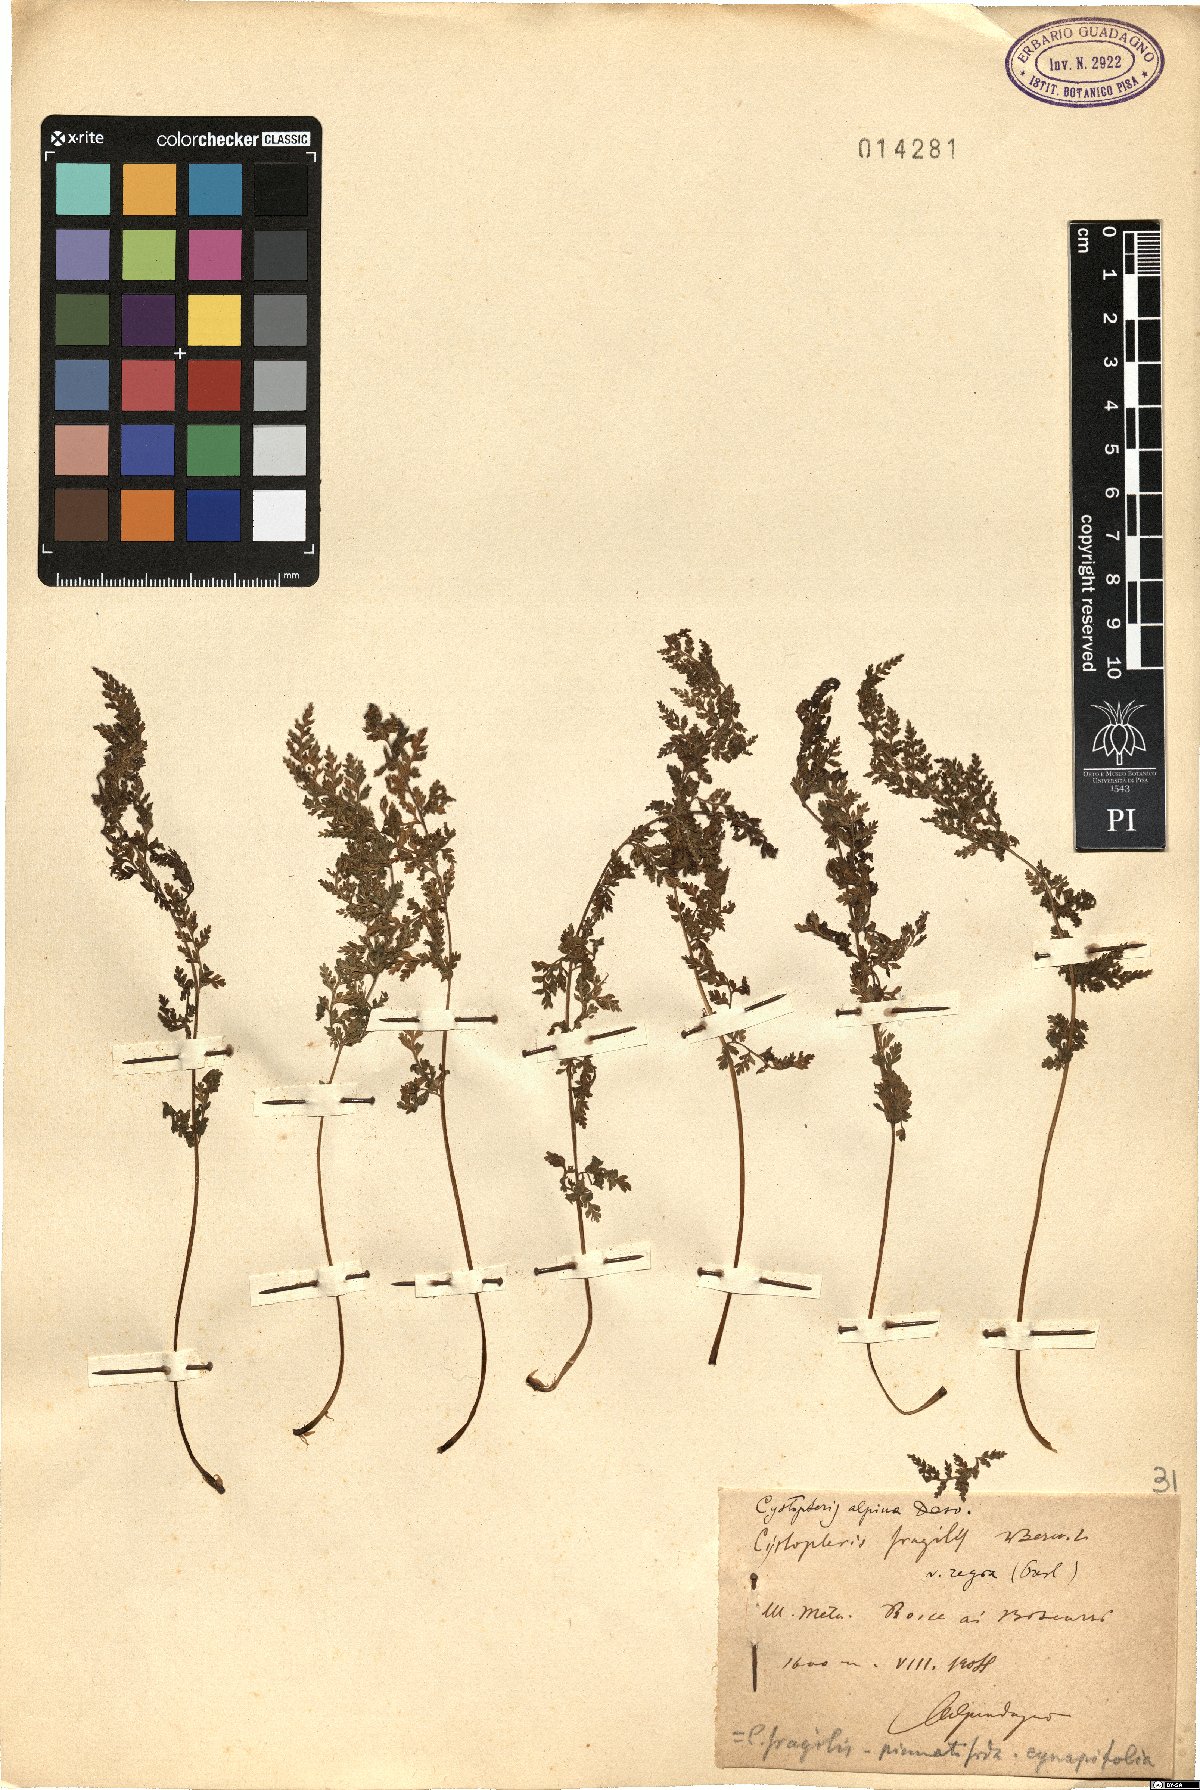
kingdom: Plantae
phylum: Tracheophyta
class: Polypodiopsida
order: Polypodiales
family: Cystopteridaceae
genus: Cystopteris
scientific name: Cystopteris alpina
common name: Alpine bladder-fern
